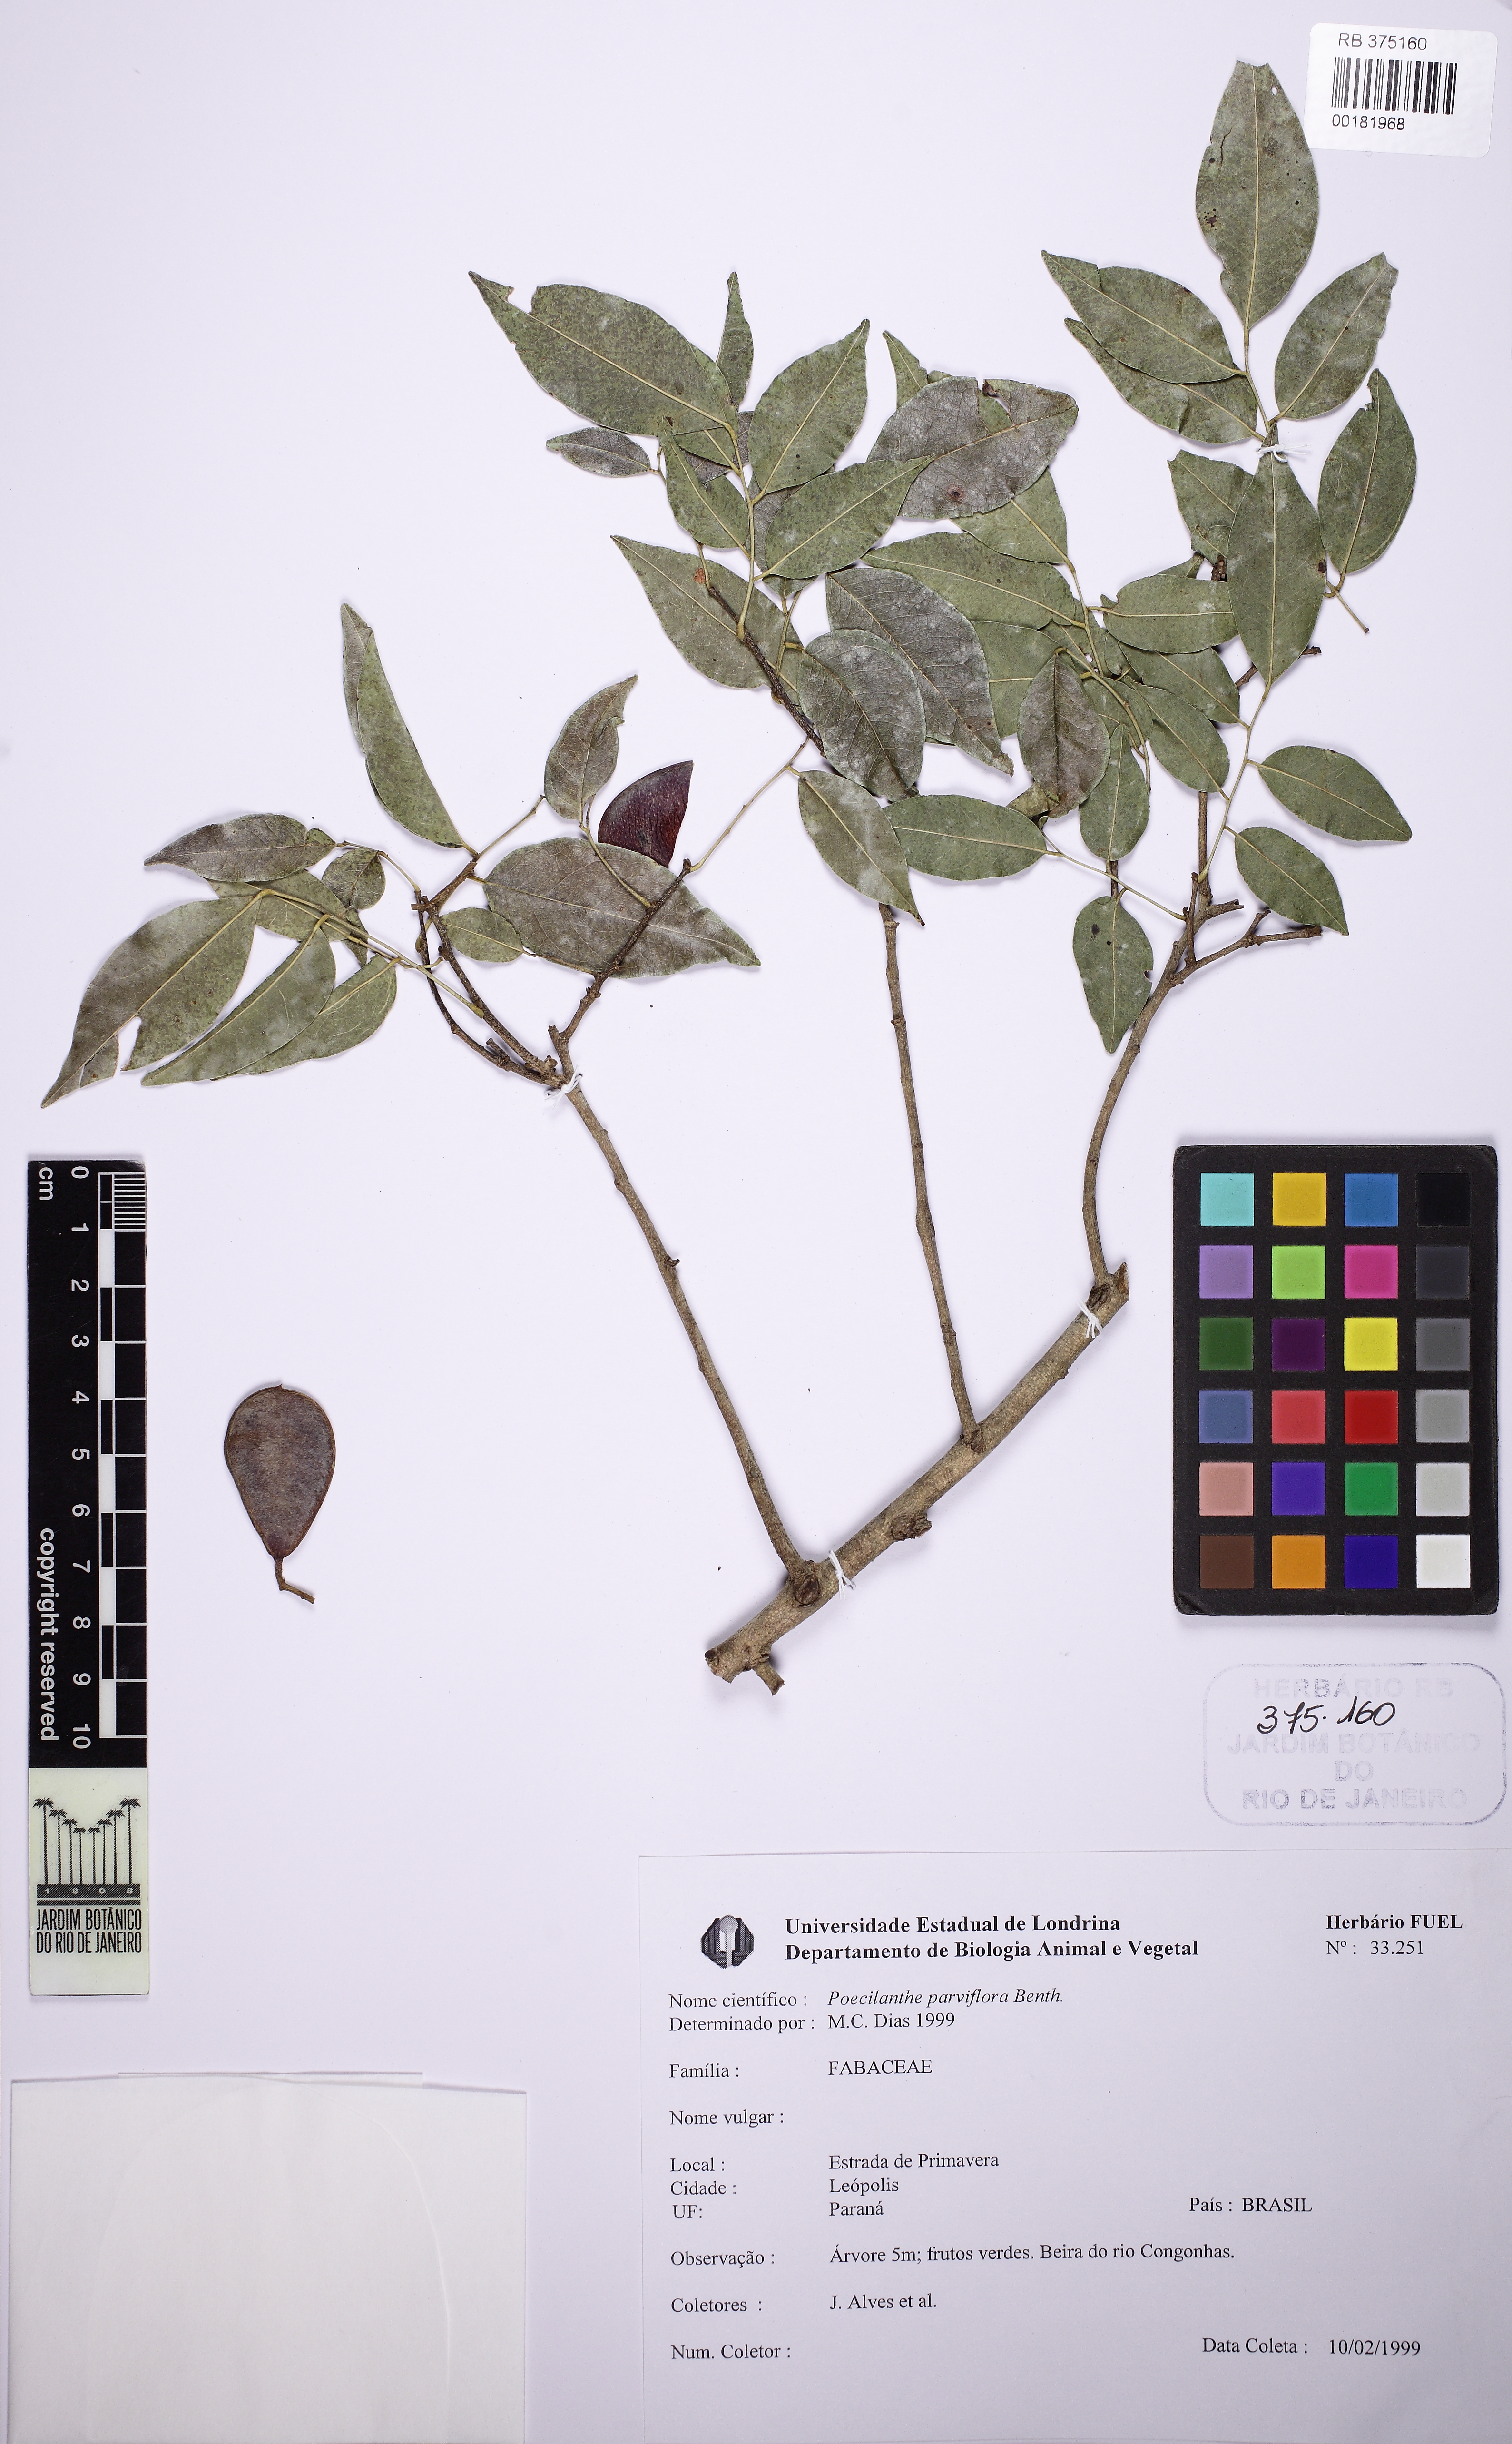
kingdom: Plantae
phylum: Tracheophyta
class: Magnoliopsida
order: Fabales
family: Fabaceae
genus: Poecilanthe
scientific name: Poecilanthe parviflora
